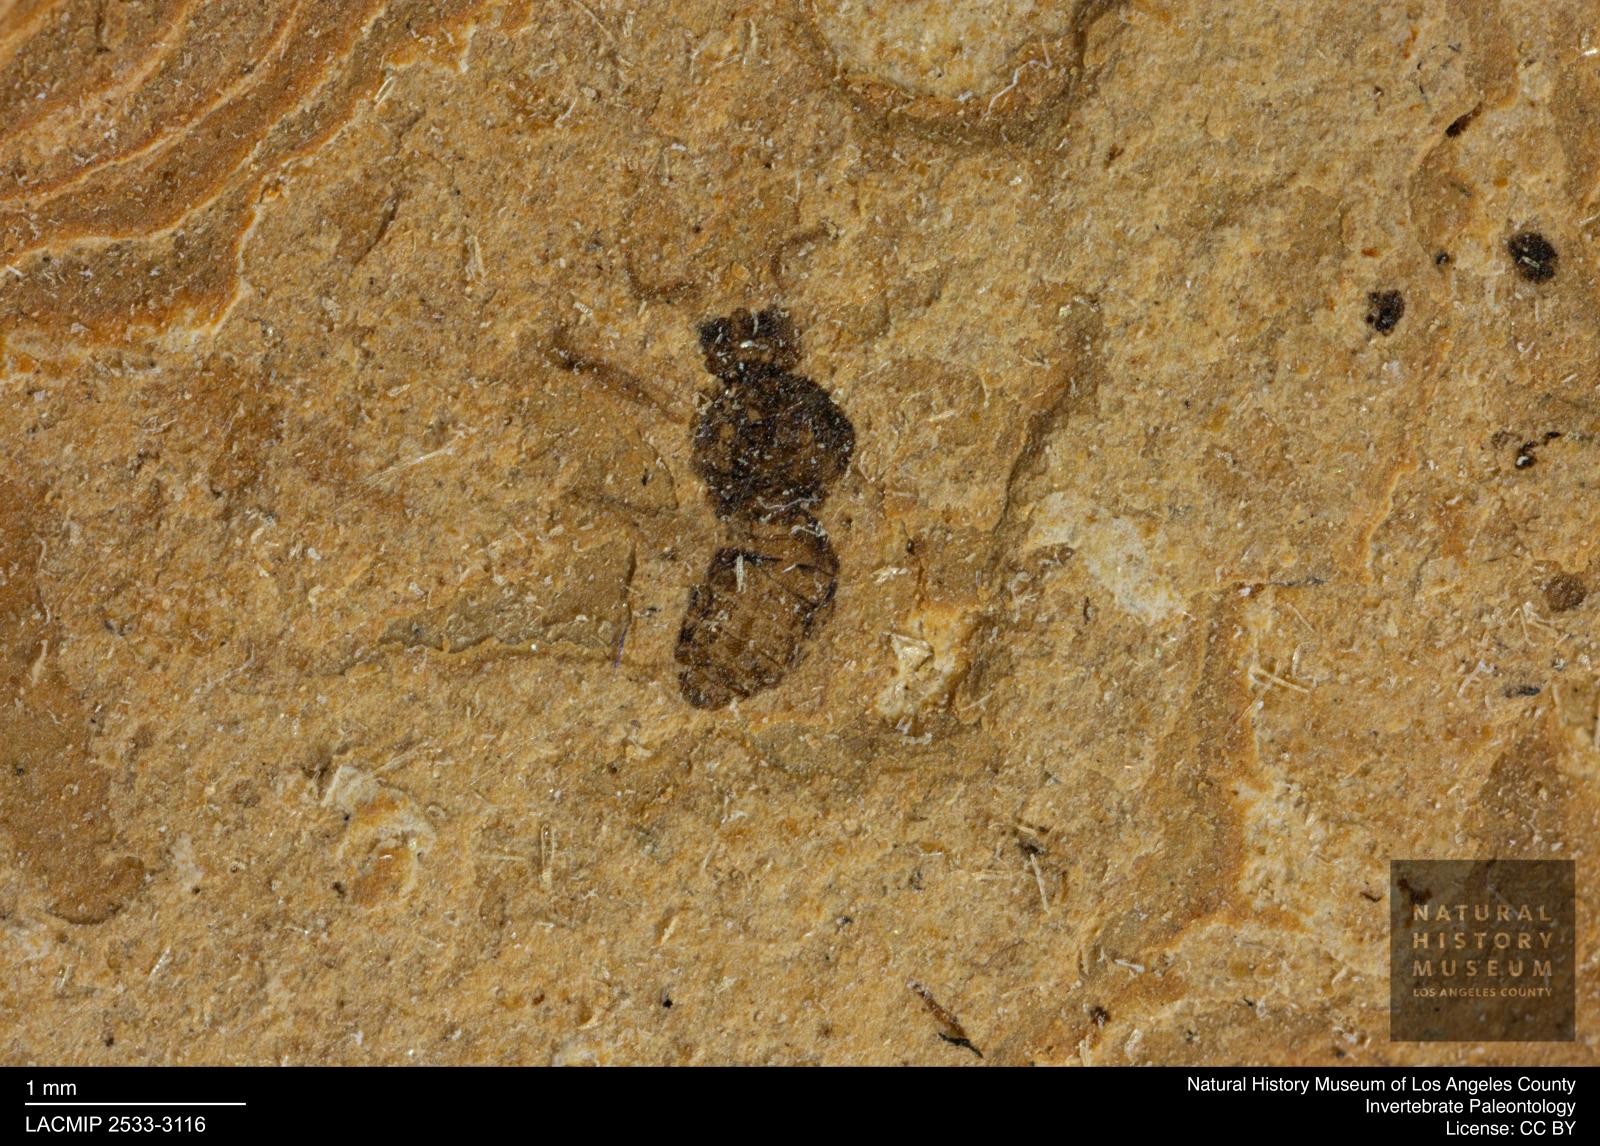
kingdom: Animalia
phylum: Arthropoda
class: Insecta
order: Thysanoptera
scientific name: Thysanoptera
